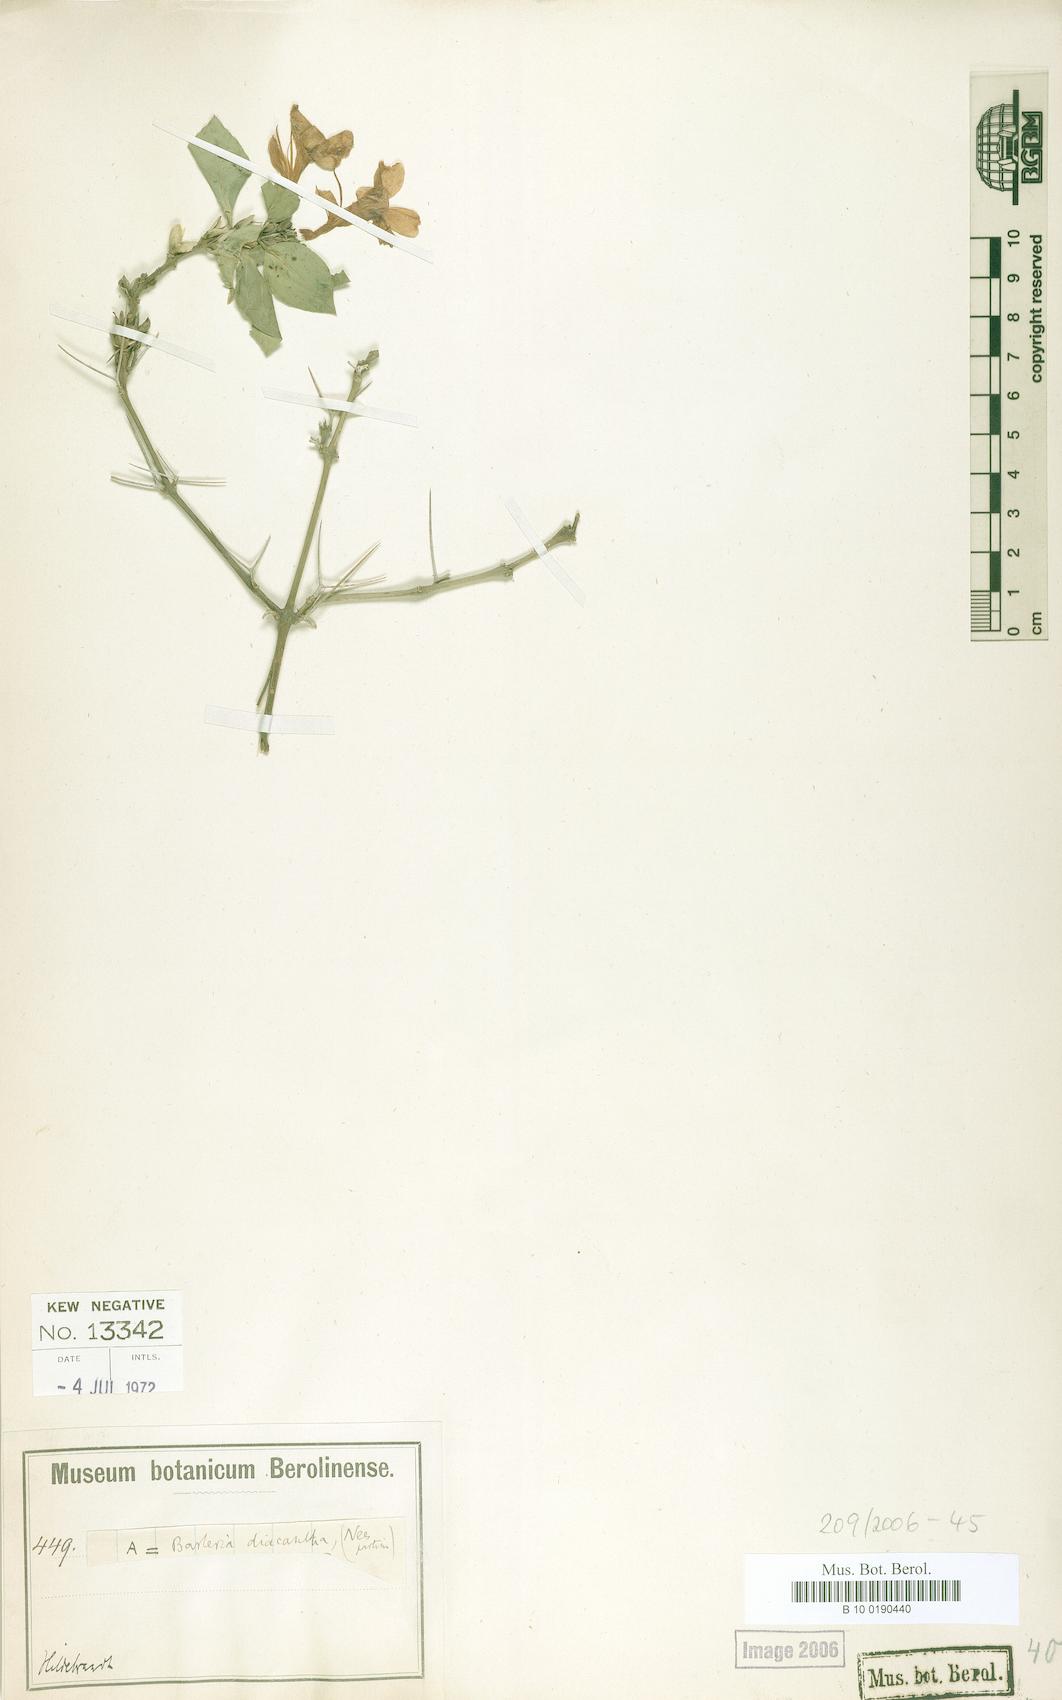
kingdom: Plantae
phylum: Tracheophyta
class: Magnoliopsida
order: Lamiales
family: Acanthaceae
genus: Barleria
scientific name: Barleria trispinosa
